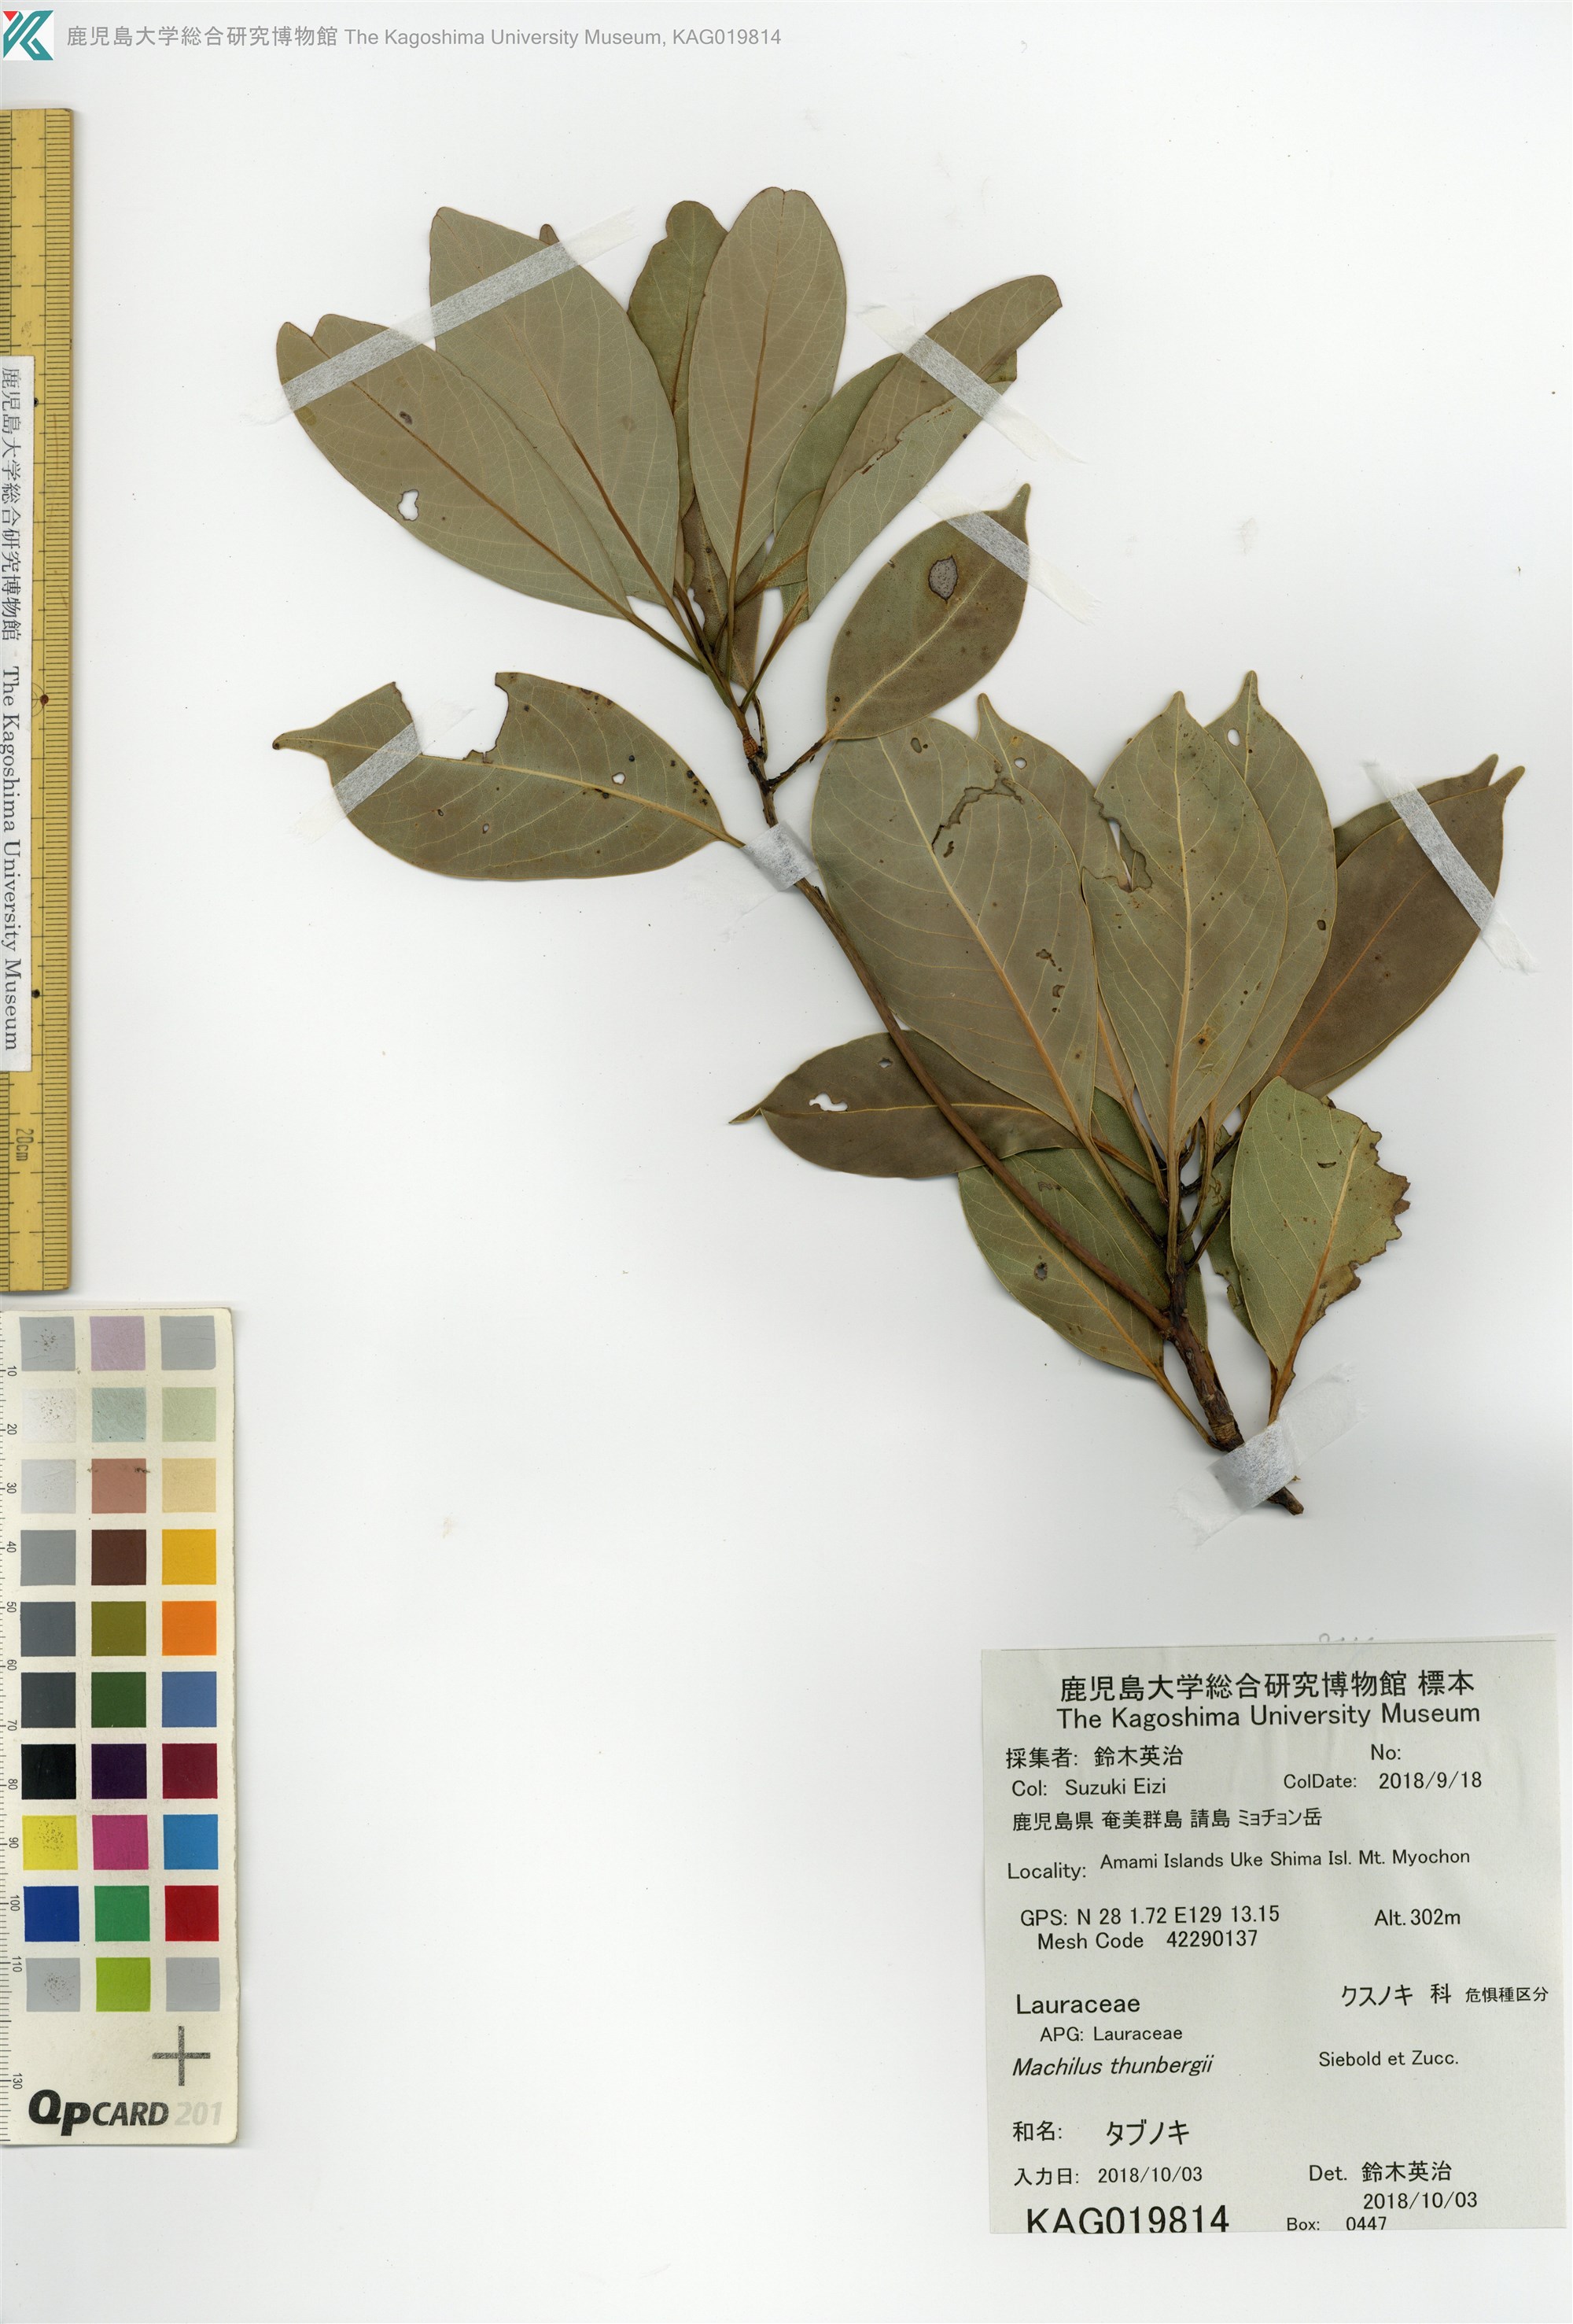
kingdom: Plantae
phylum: Tracheophyta
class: Magnoliopsida
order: Laurales
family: Lauraceae
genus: Machilus
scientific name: Machilus thunbergii
